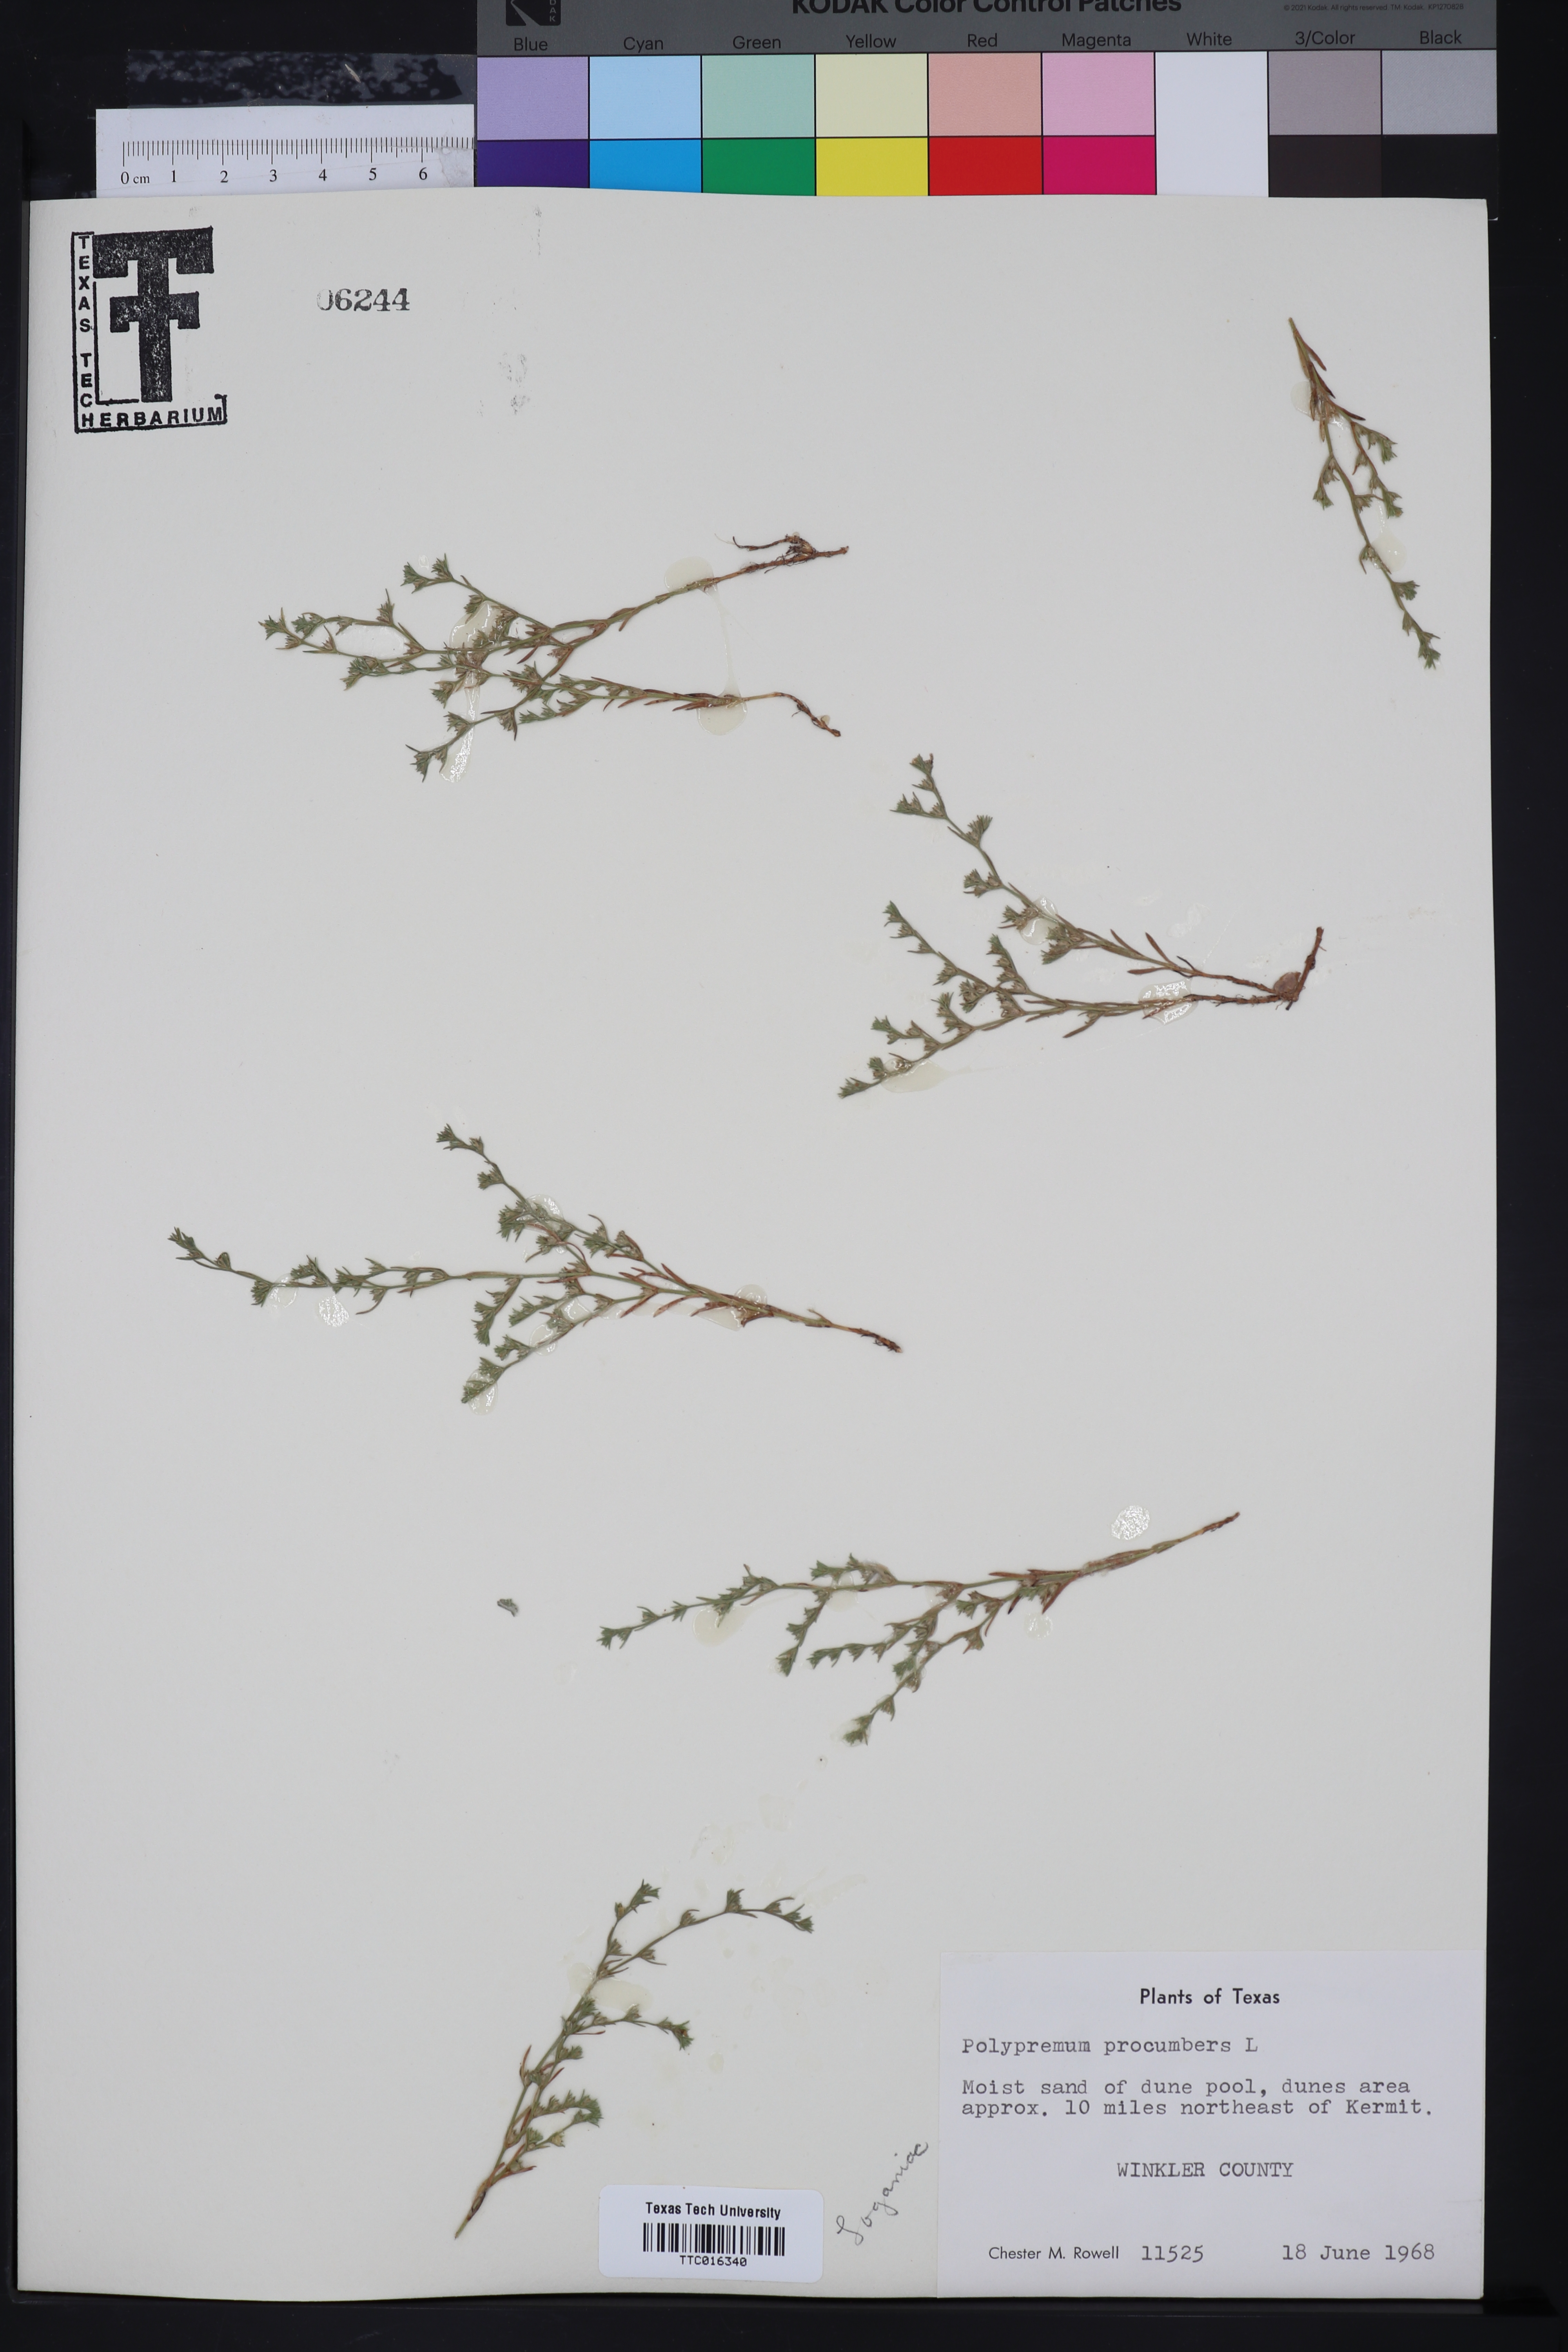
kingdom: Plantae
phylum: Tracheophyta
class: Magnoliopsida
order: Lamiales
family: Tetrachondraceae
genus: Polypremum
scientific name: Polypremum procumbens
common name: Juniper-leaf
